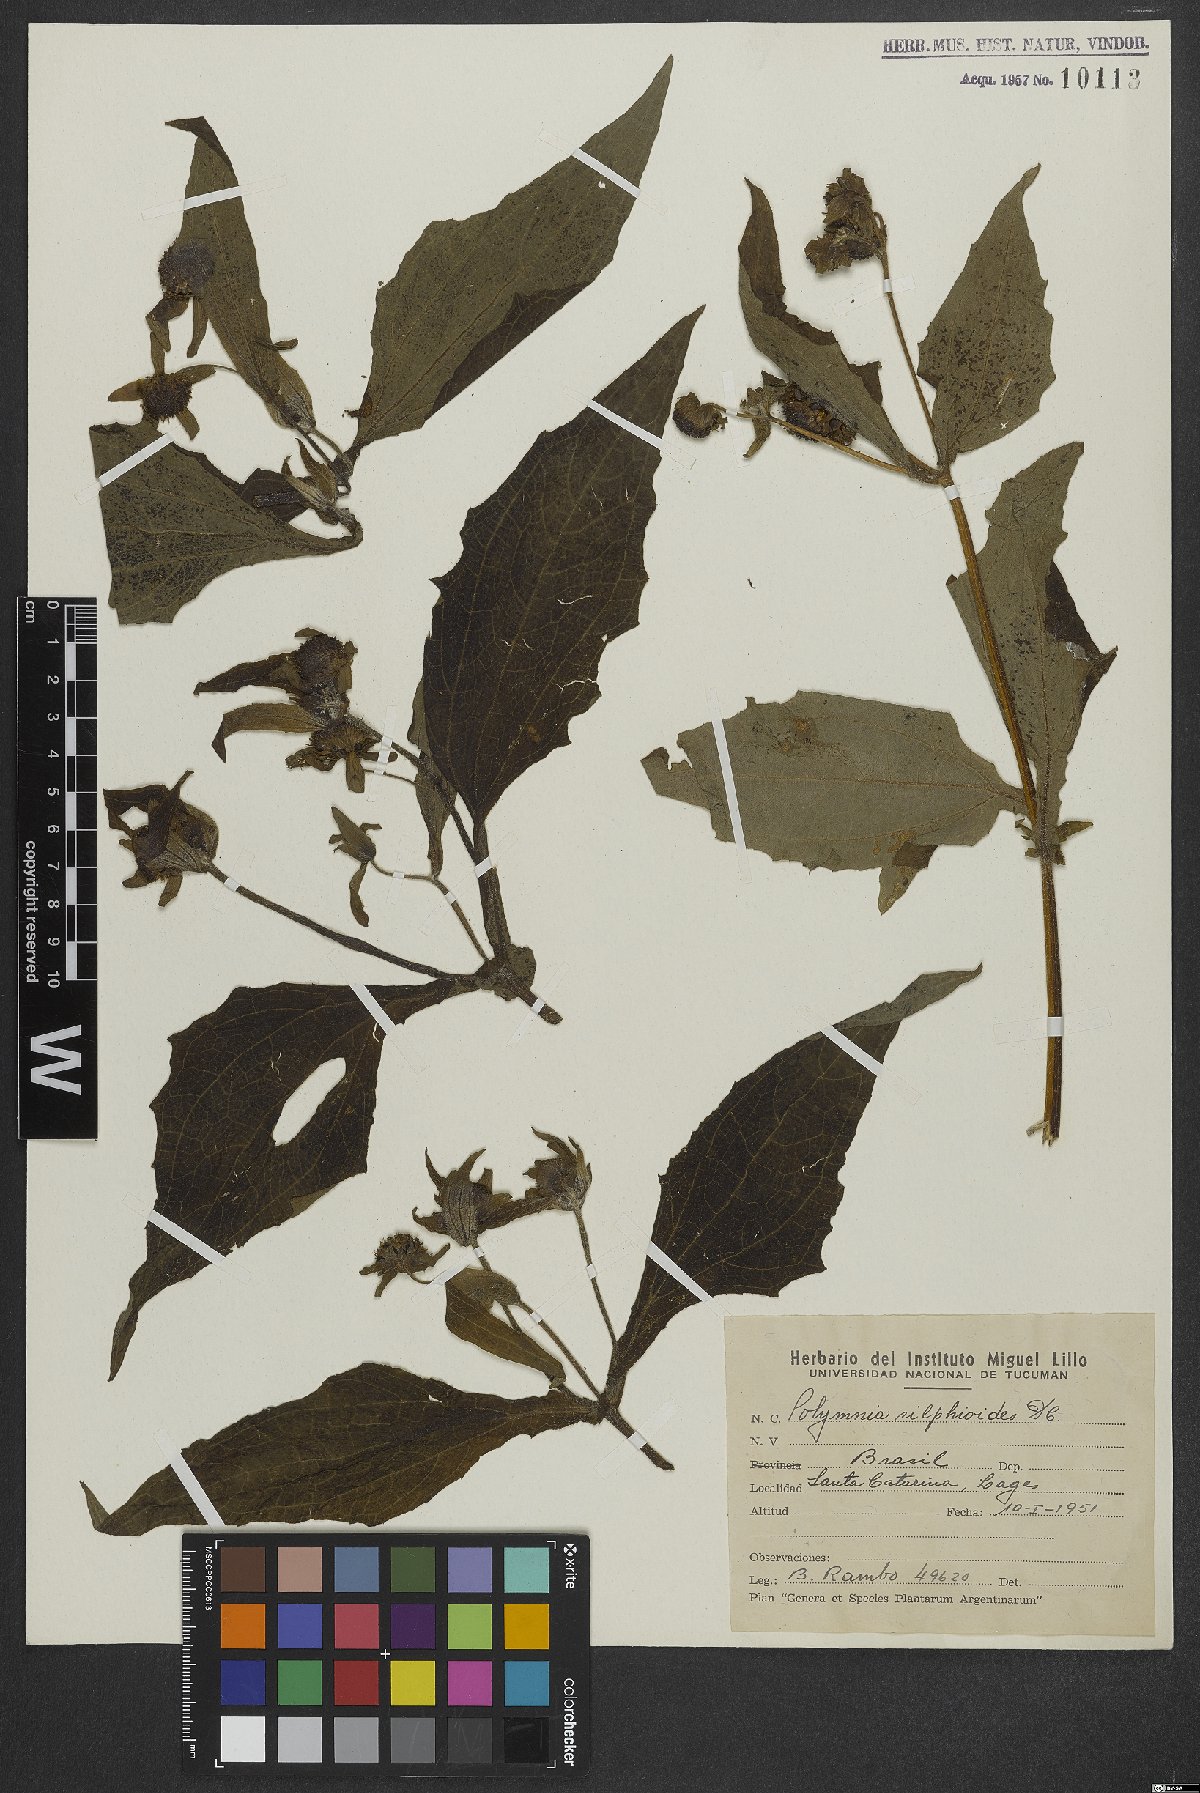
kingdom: Plantae
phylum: Tracheophyta
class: Magnoliopsida
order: Asterales
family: Asteraceae
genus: Smallanthus
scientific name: Smallanthus connatus
